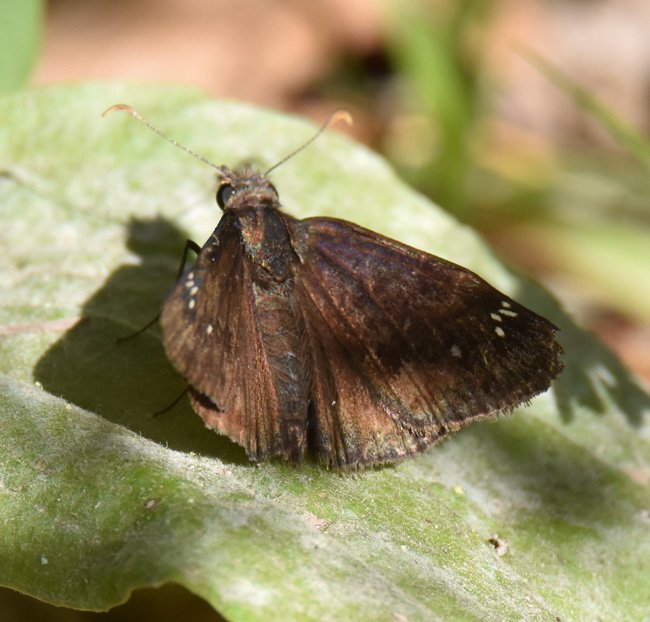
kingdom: Animalia
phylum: Arthropoda
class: Insecta
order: Lepidoptera
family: Hesperiidae
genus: Gesta
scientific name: Gesta
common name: Wild Indigo Duskywing
